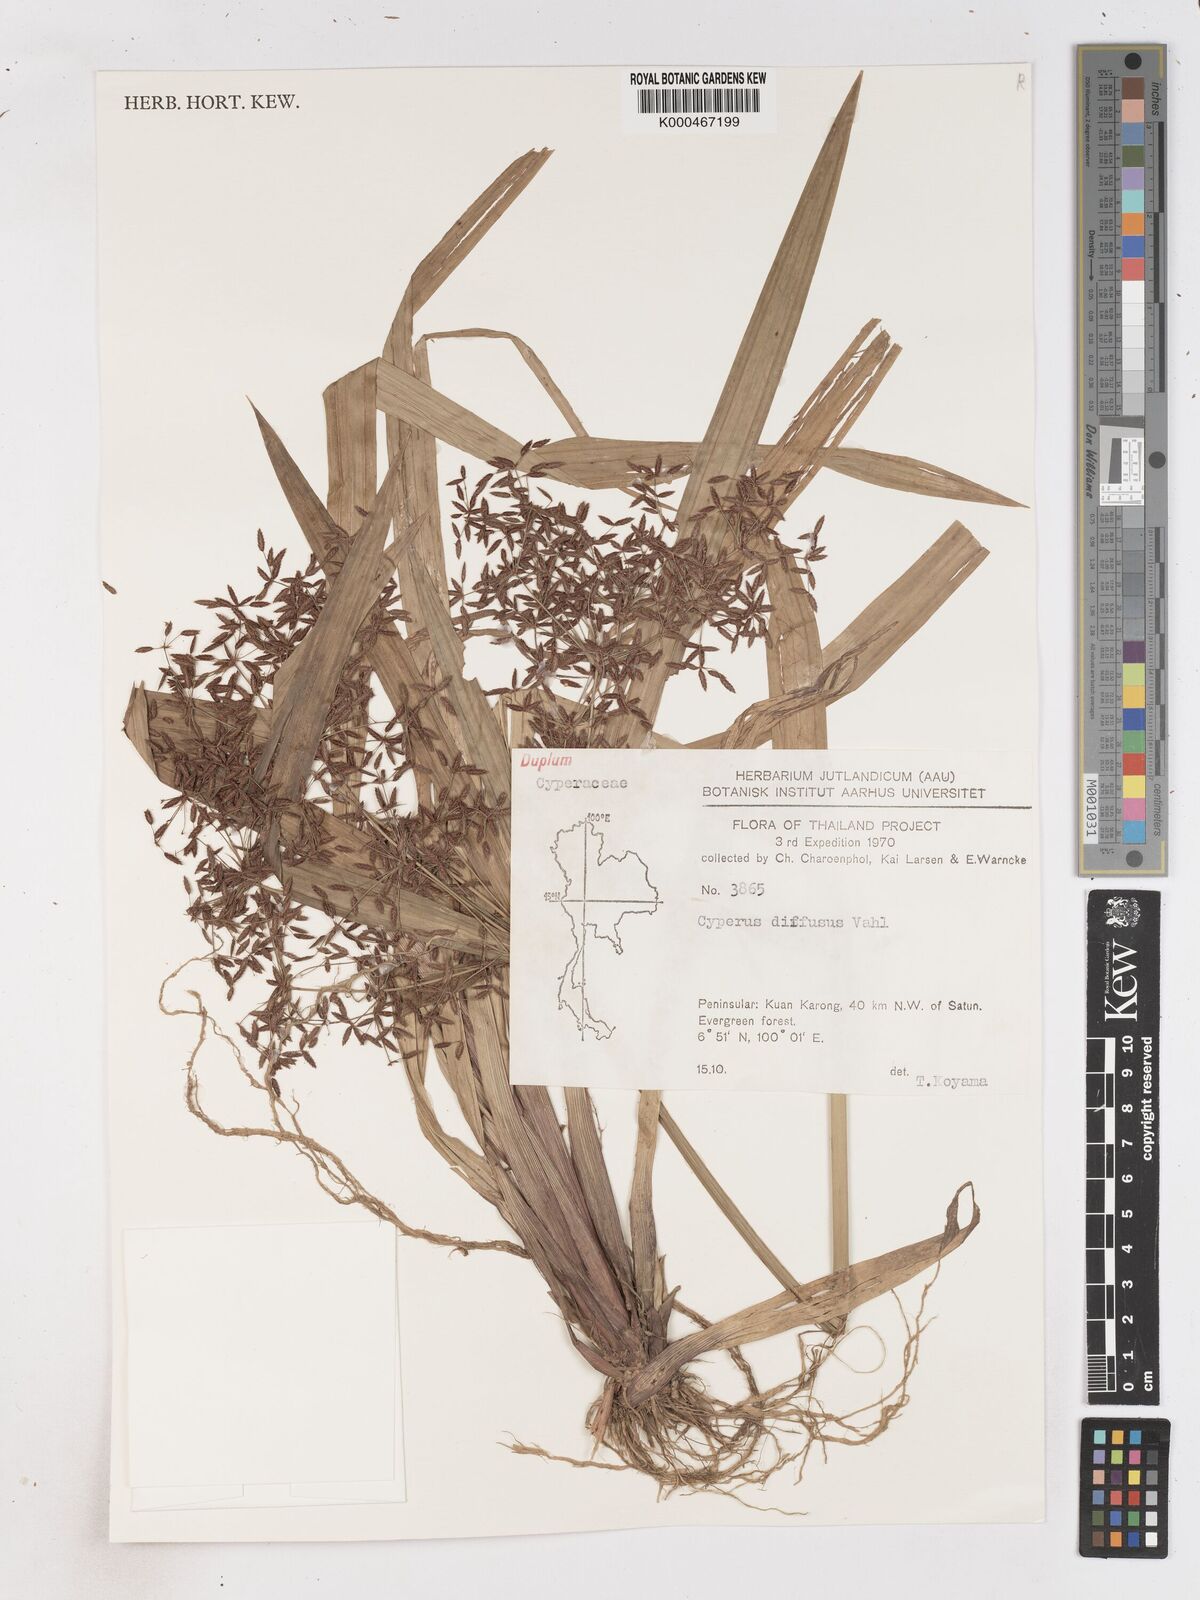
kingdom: Plantae
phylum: Tracheophyta
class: Liliopsida
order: Poales
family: Cyperaceae
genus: Cyperus
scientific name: Cyperus diffusus
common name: Dwarf umbrella grass
